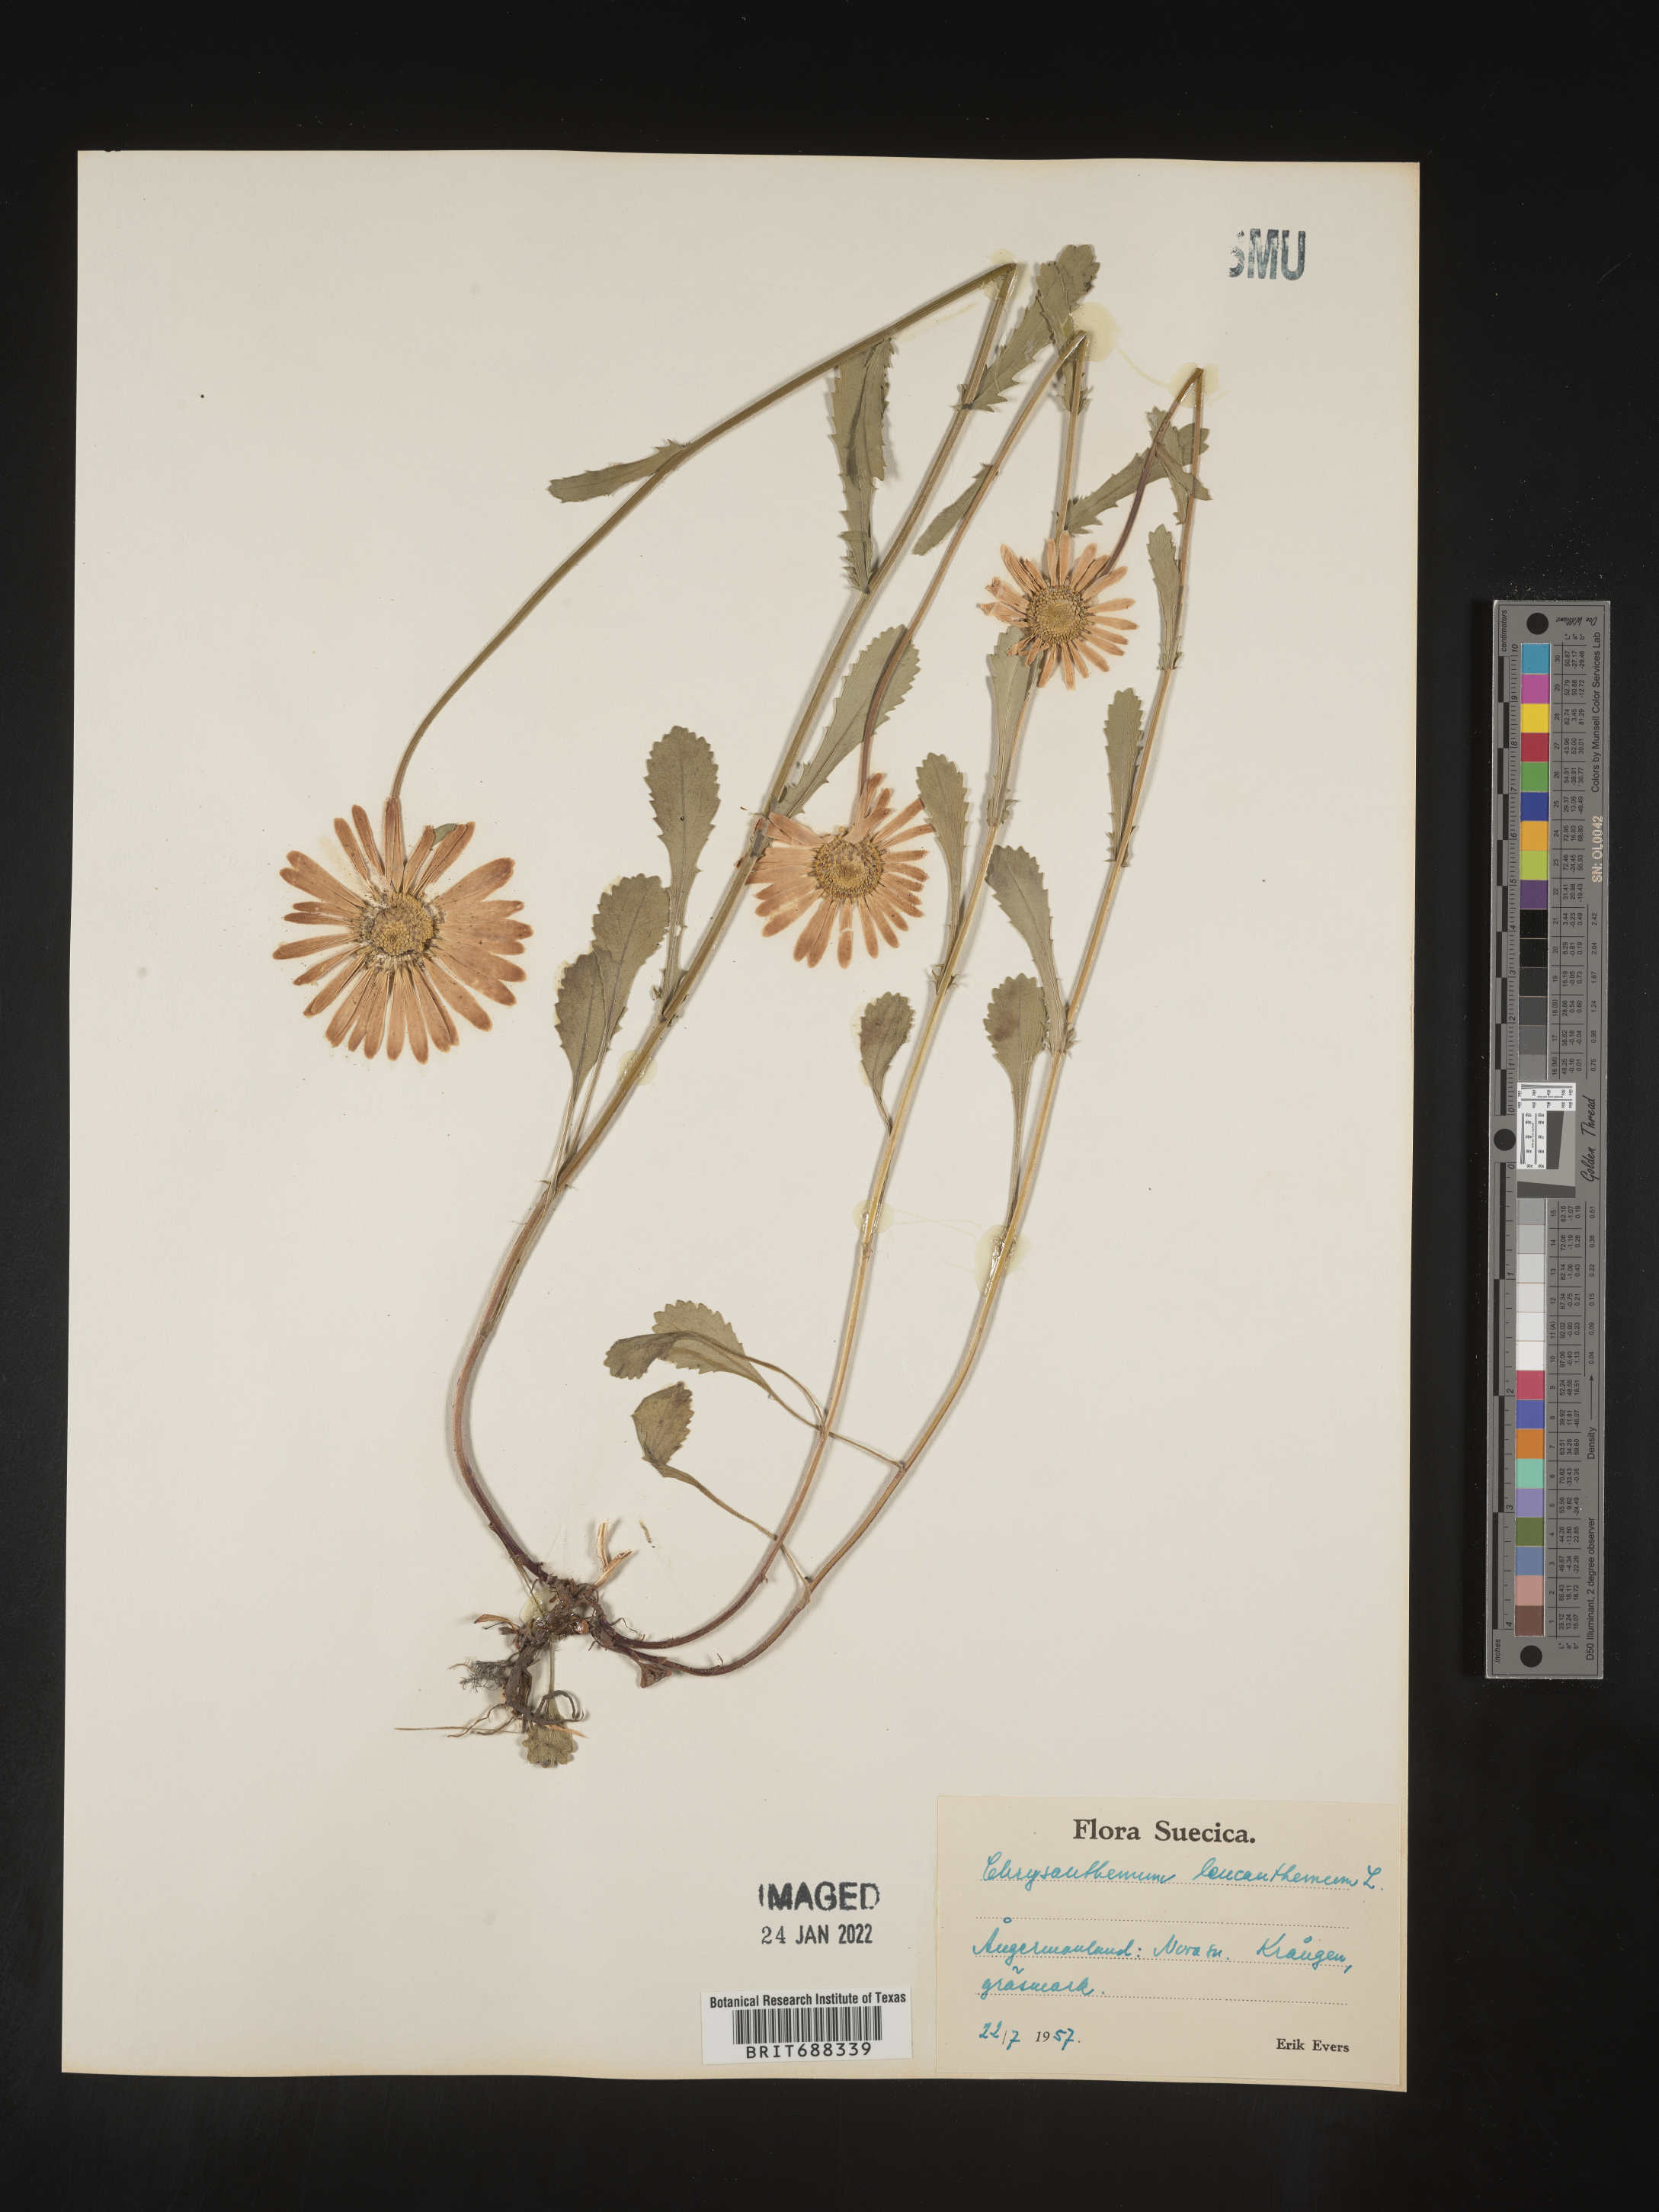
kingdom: Plantae
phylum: Tracheophyta
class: Magnoliopsida
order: Asterales
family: Asteraceae
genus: Chrysanthemum
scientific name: Chrysanthemum
